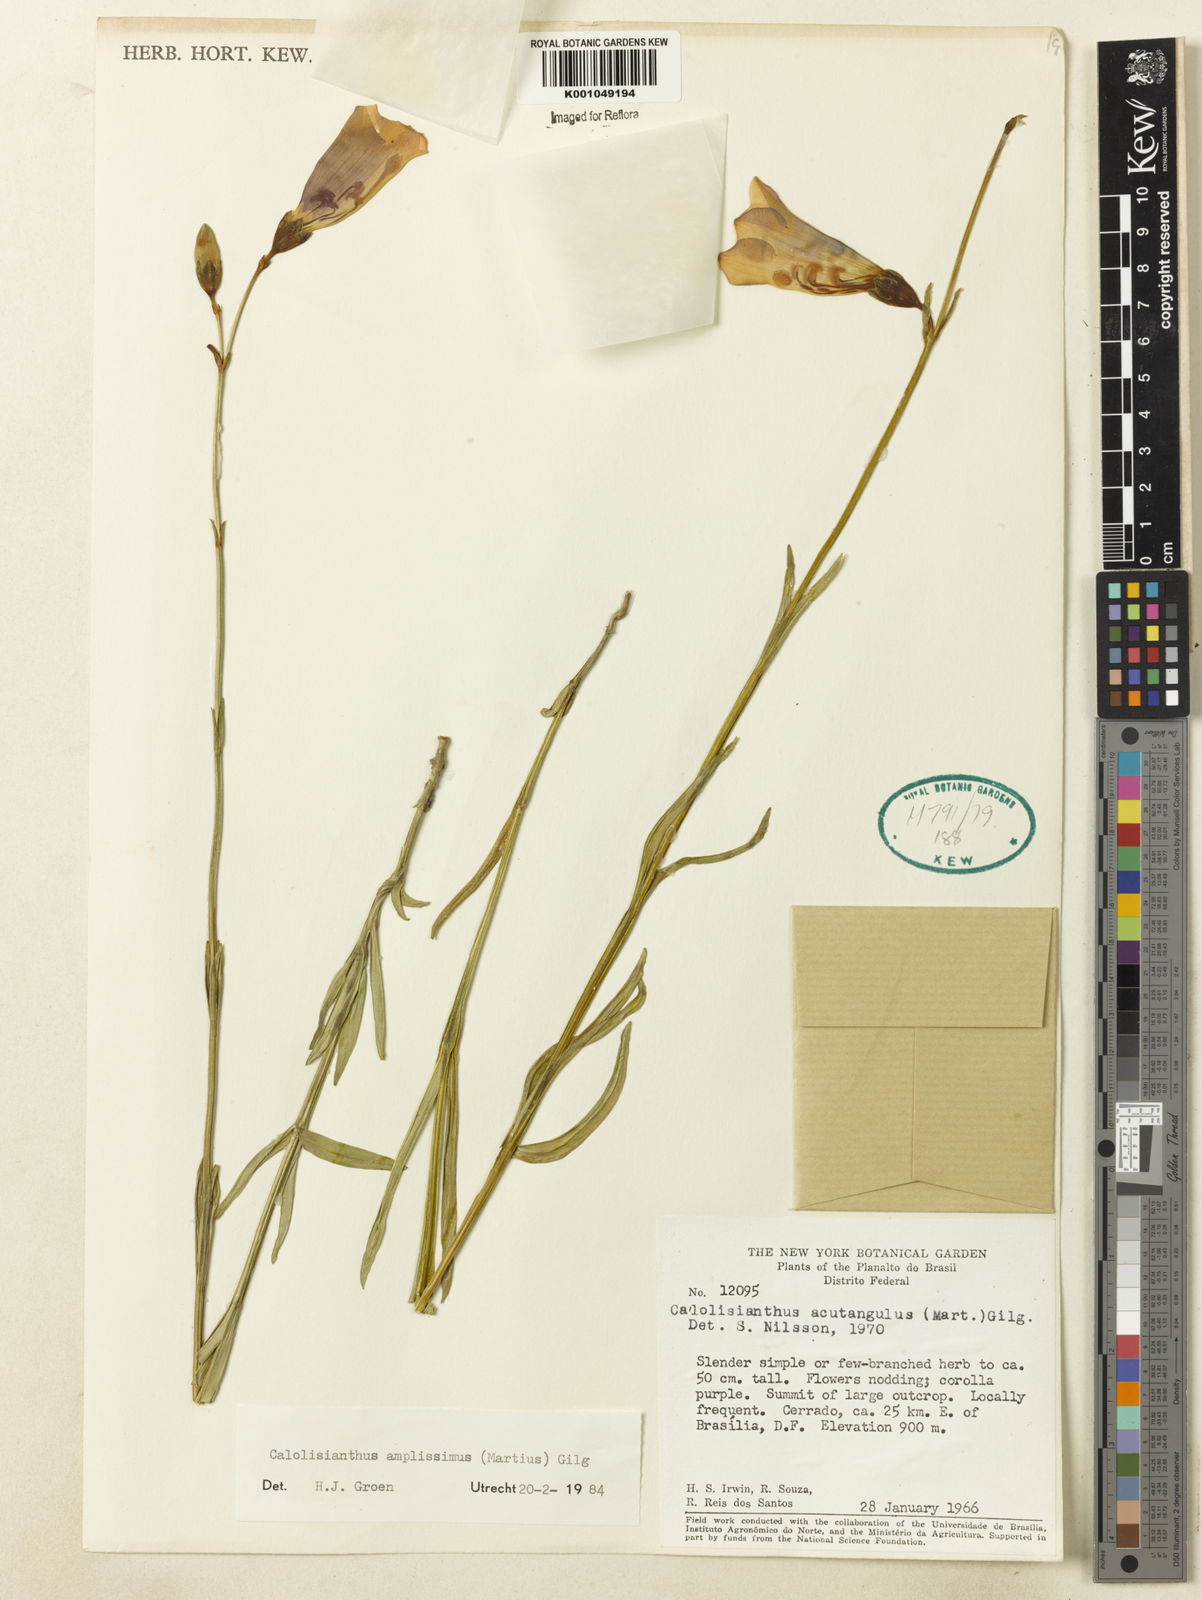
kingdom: Plantae
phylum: Tracheophyta
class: Magnoliopsida
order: Gentianales
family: Gentianaceae
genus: Calolisianthus
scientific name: Calolisianthus amplissimus
